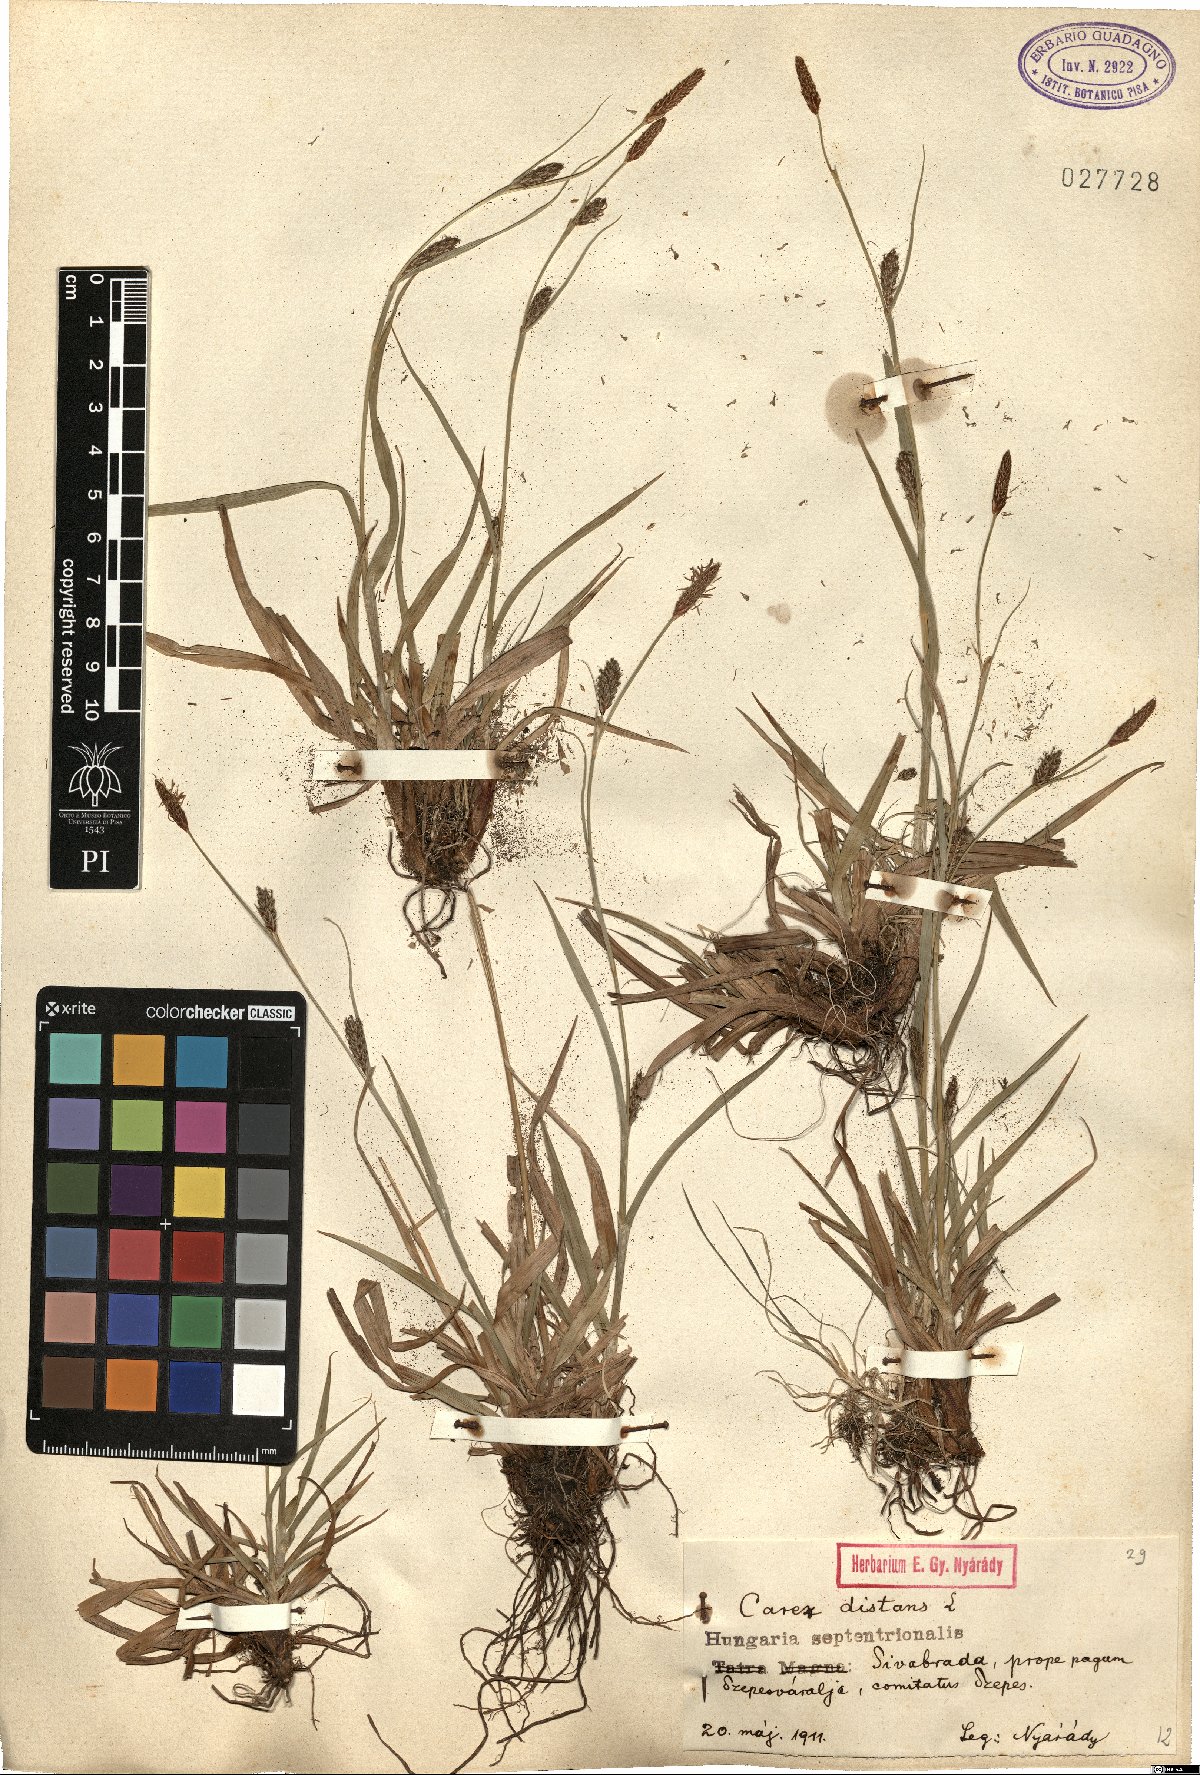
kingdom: Plantae
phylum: Tracheophyta
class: Liliopsida
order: Poales
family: Cyperaceae
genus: Carex
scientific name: Carex distans
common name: Distant sedge
